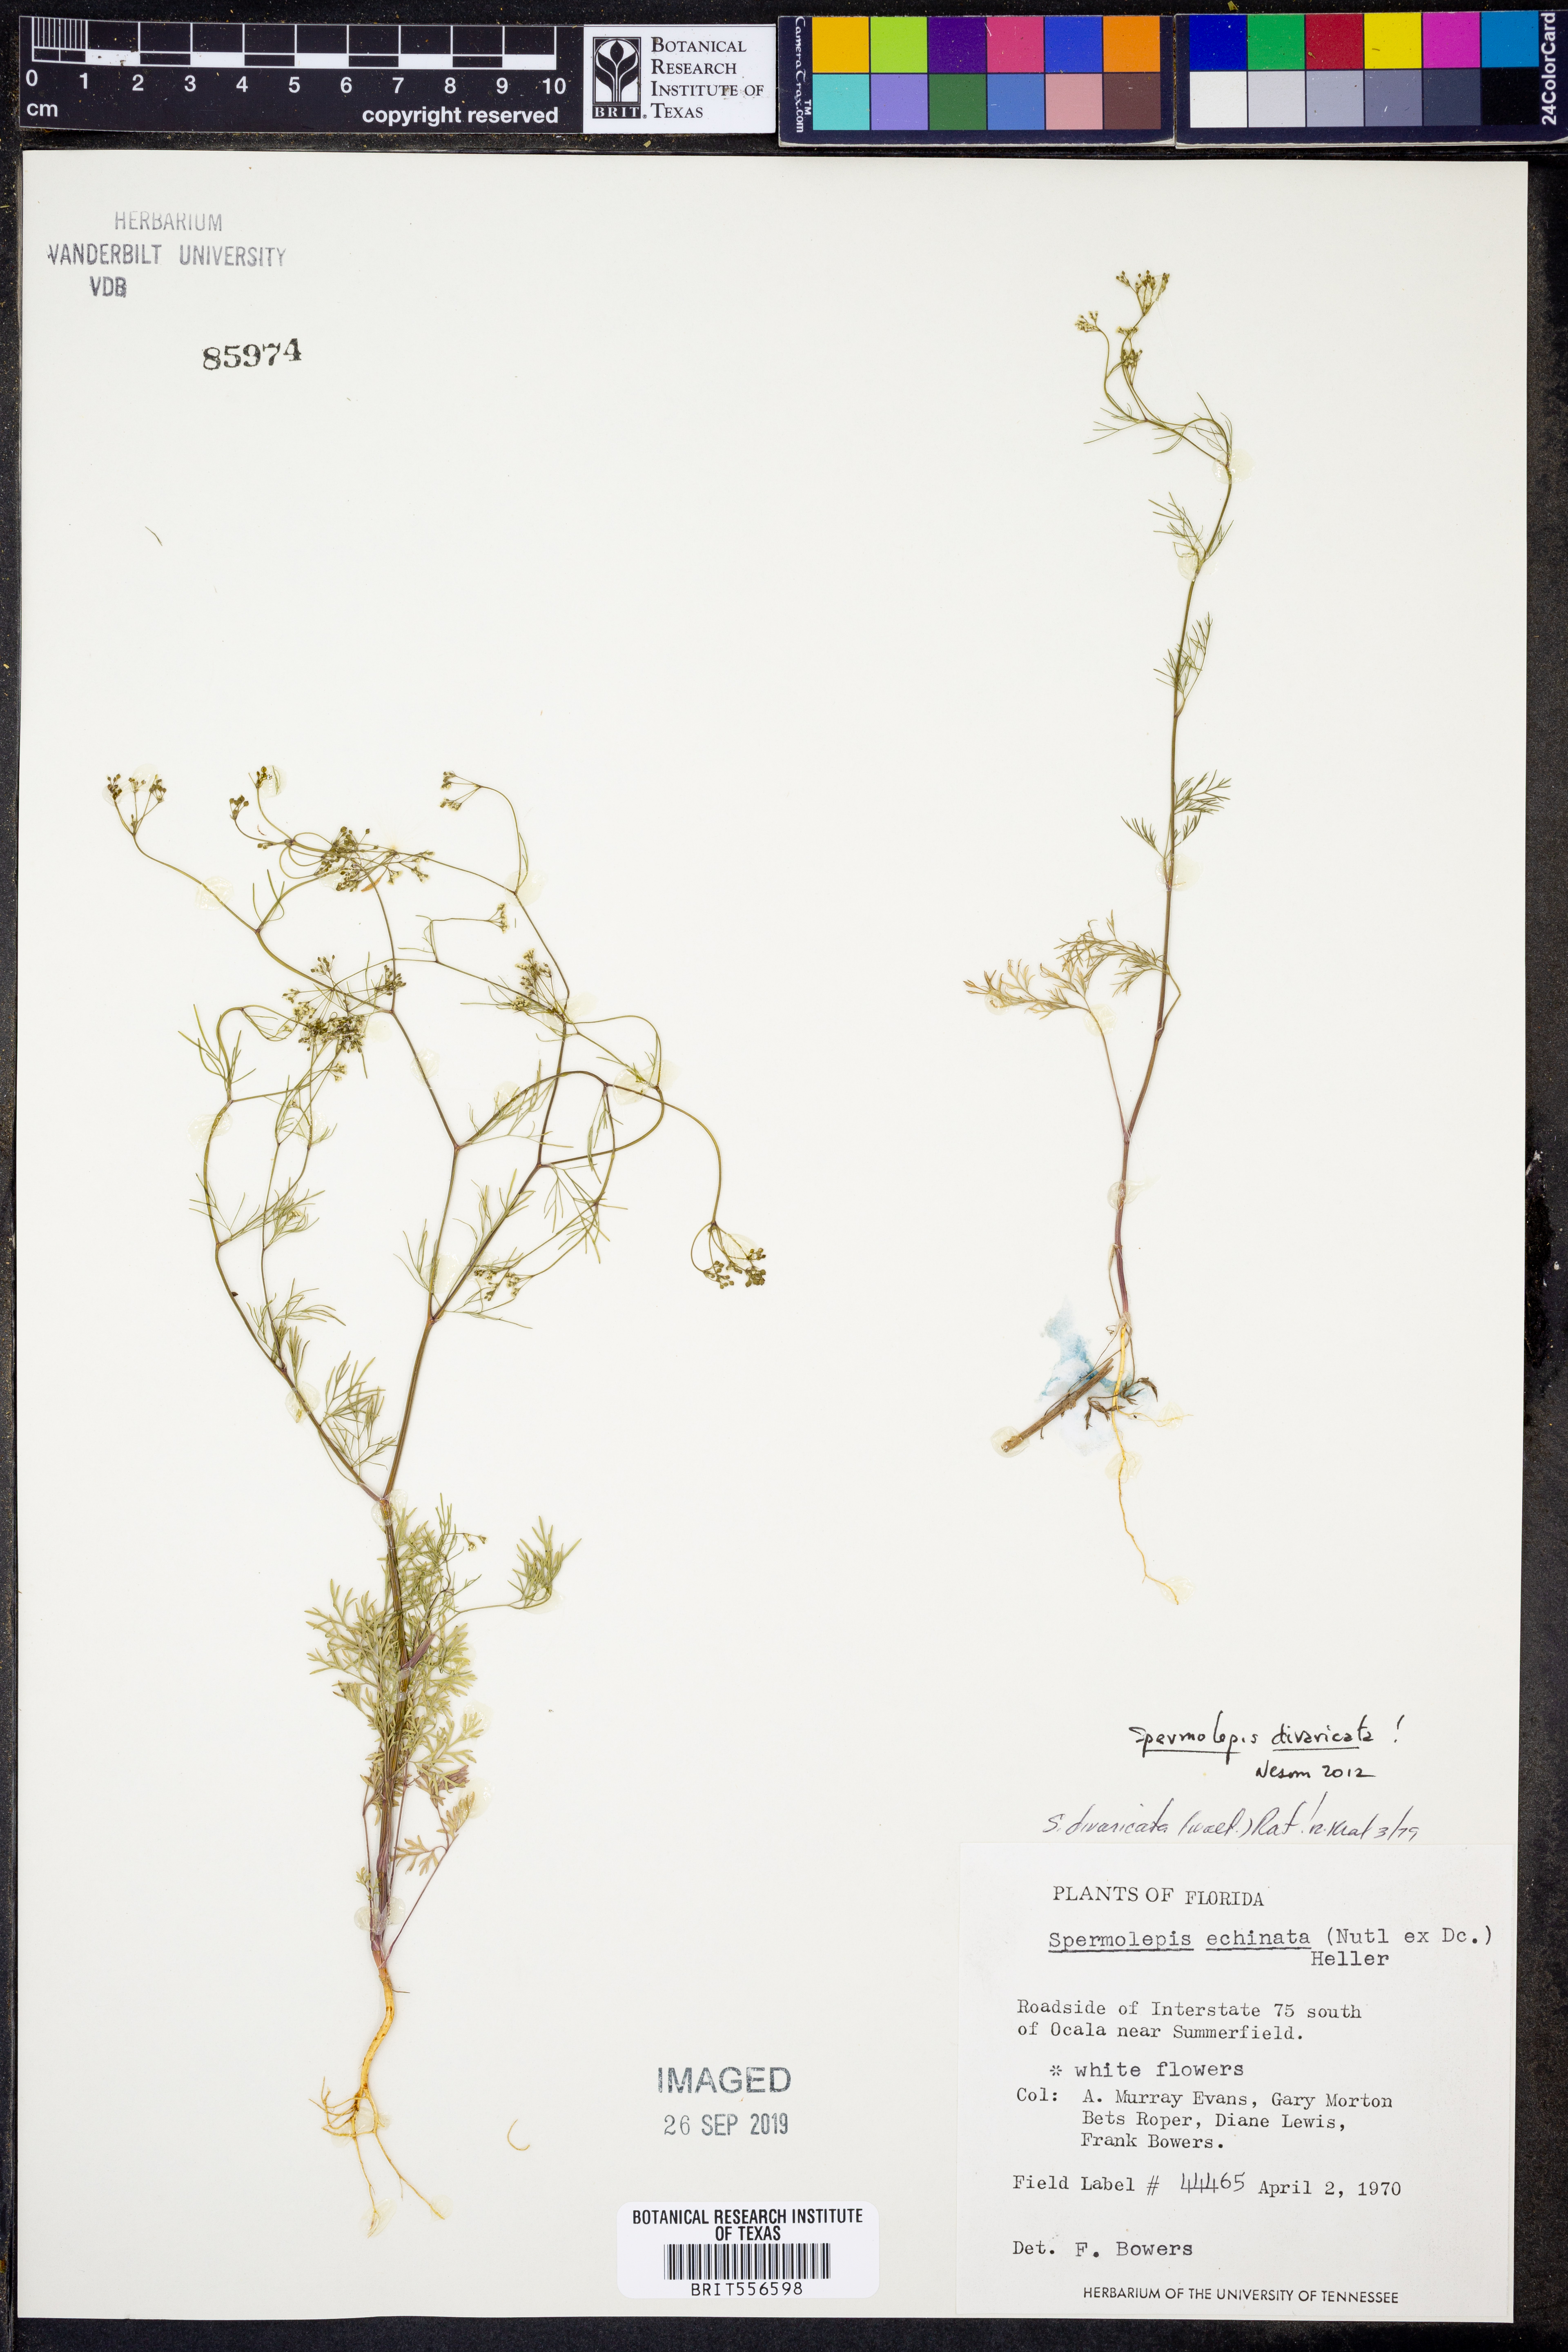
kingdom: Plantae
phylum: Tracheophyta
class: Magnoliopsida
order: Apiales
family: Apiaceae
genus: Spermolepis
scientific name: Spermolepis divaricata
